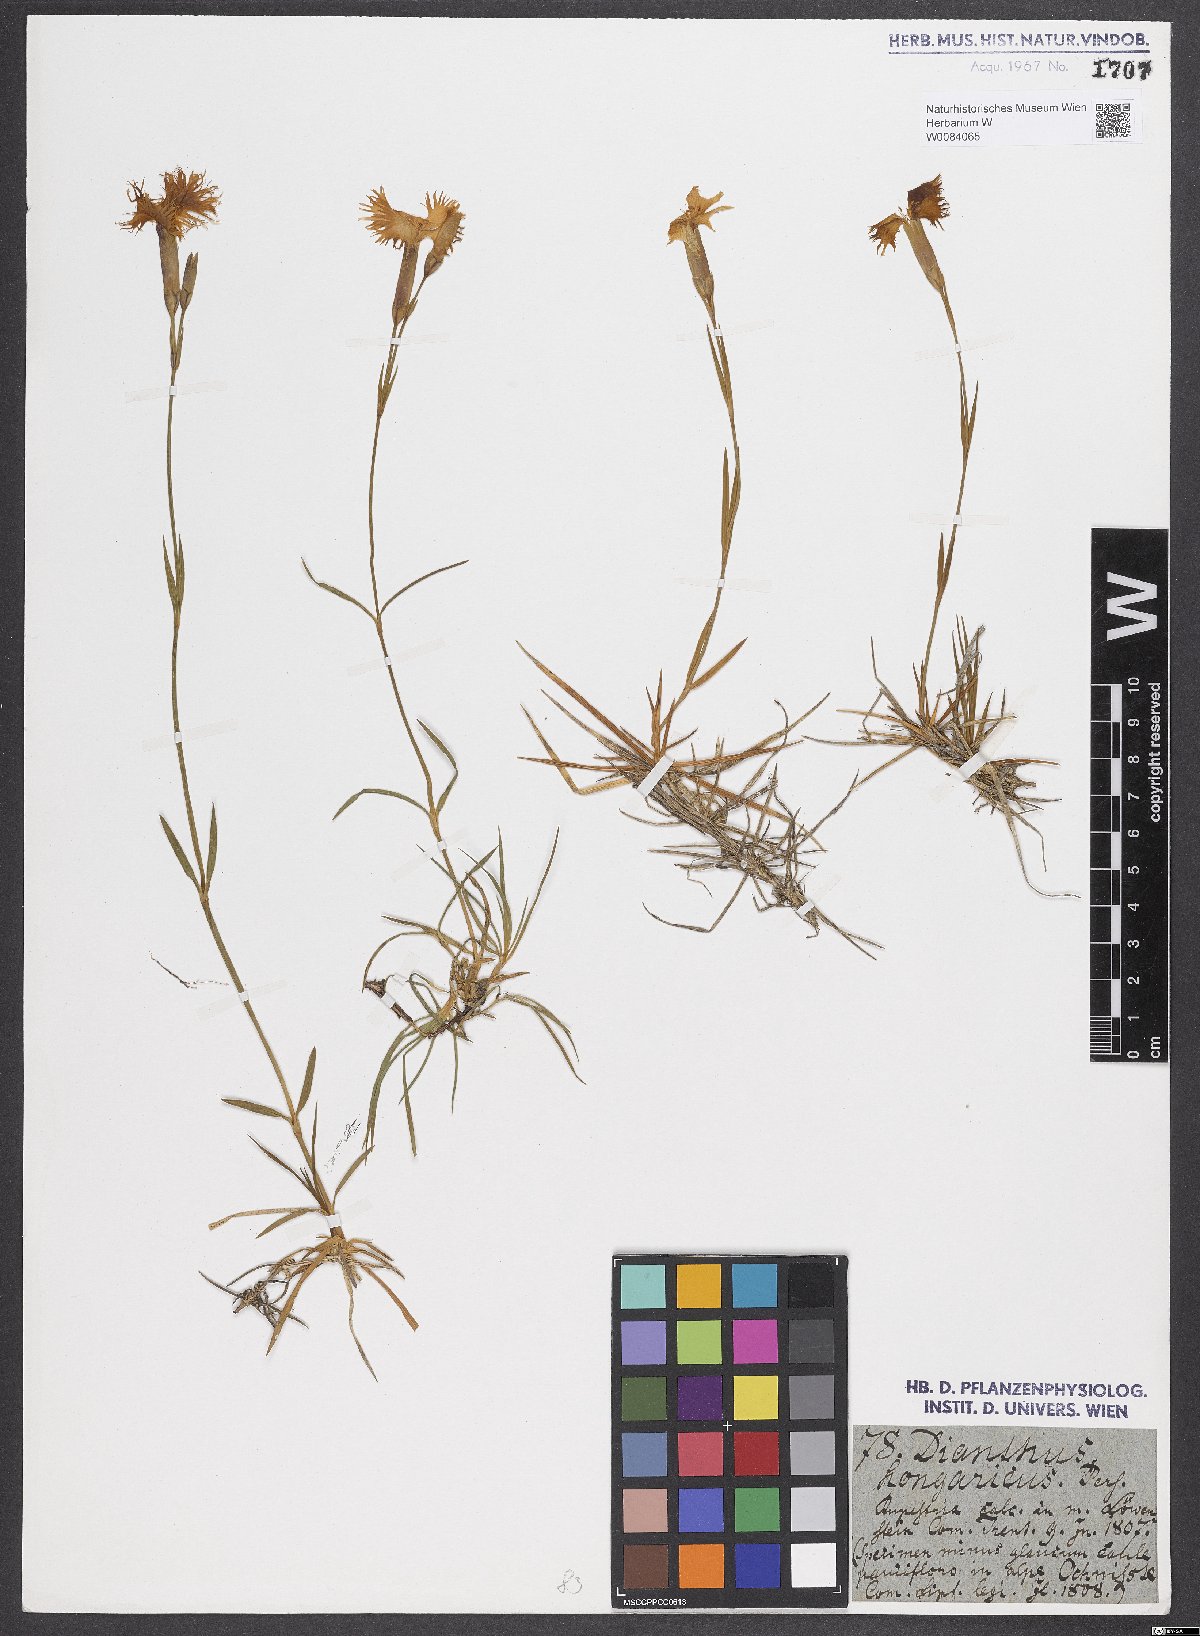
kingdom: Plantae
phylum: Tracheophyta
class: Magnoliopsida
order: Caryophyllales
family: Caryophyllaceae
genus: Dianthus
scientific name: Dianthus plumarius
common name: Pink
